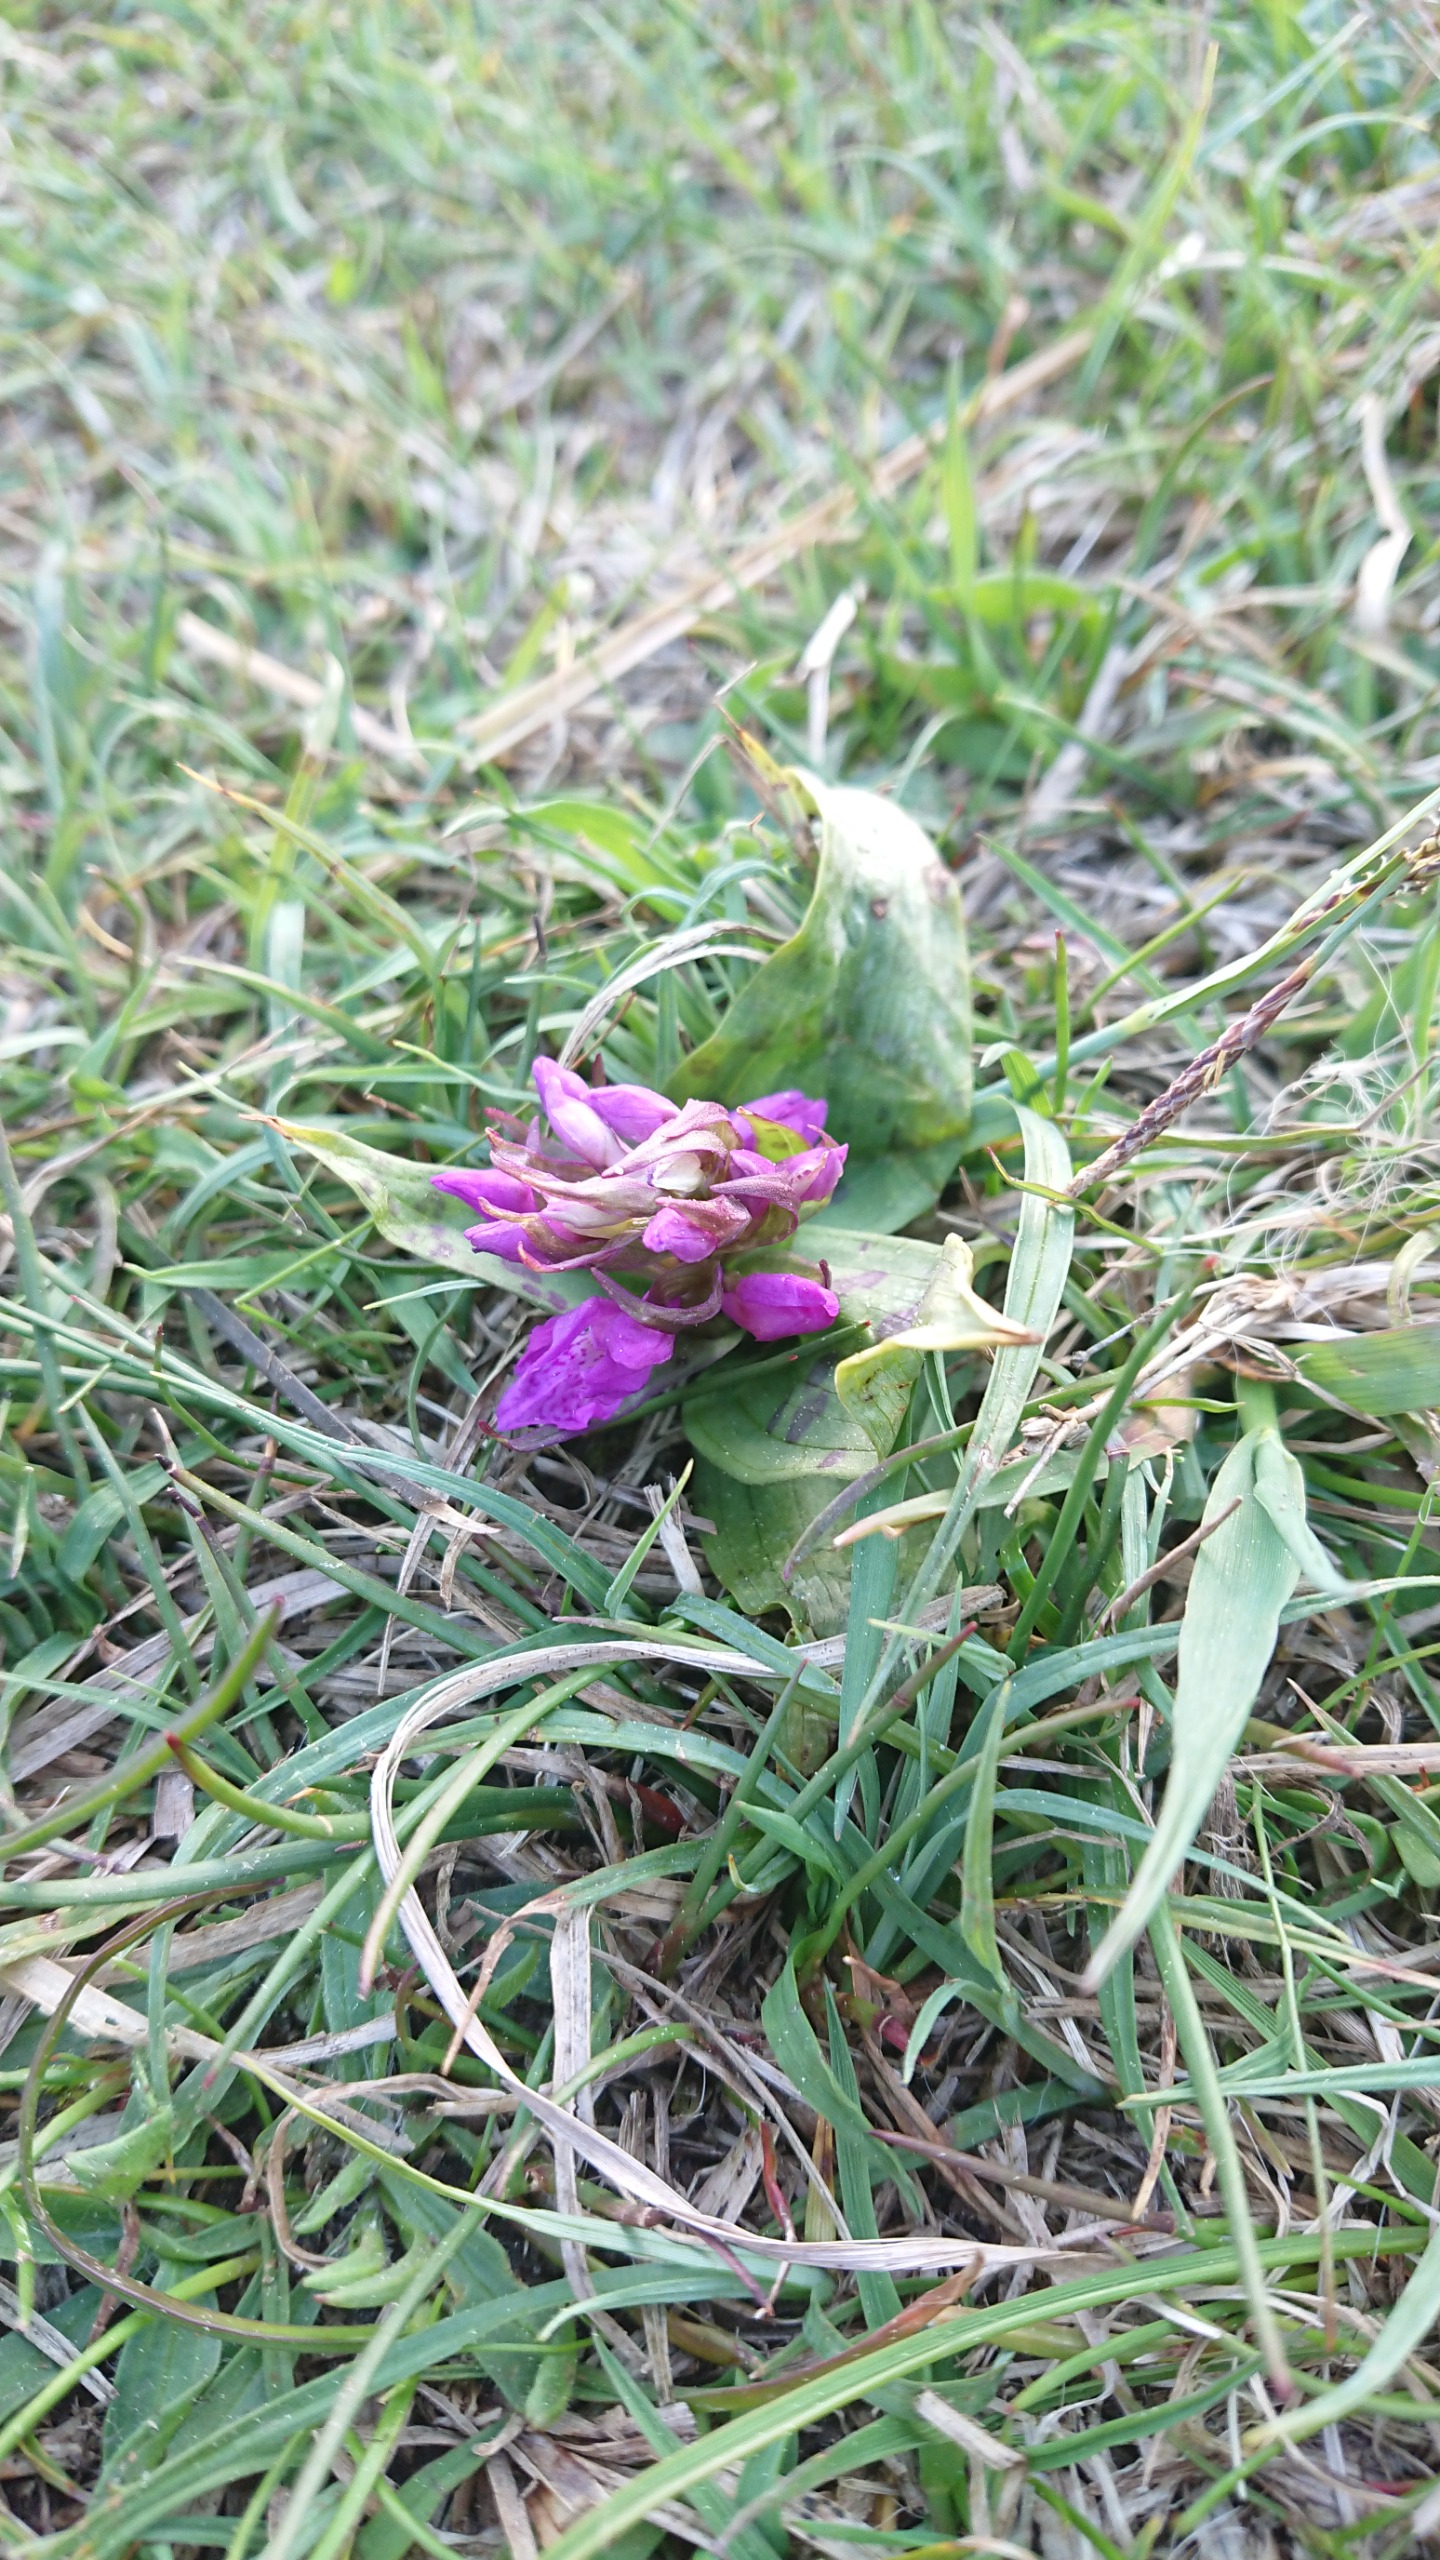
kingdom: Plantae
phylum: Tracheophyta
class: Liliopsida
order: Asparagales
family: Orchidaceae
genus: Dactylorhiza
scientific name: Dactylorhiza majalis
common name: Maj-gøgeurt
